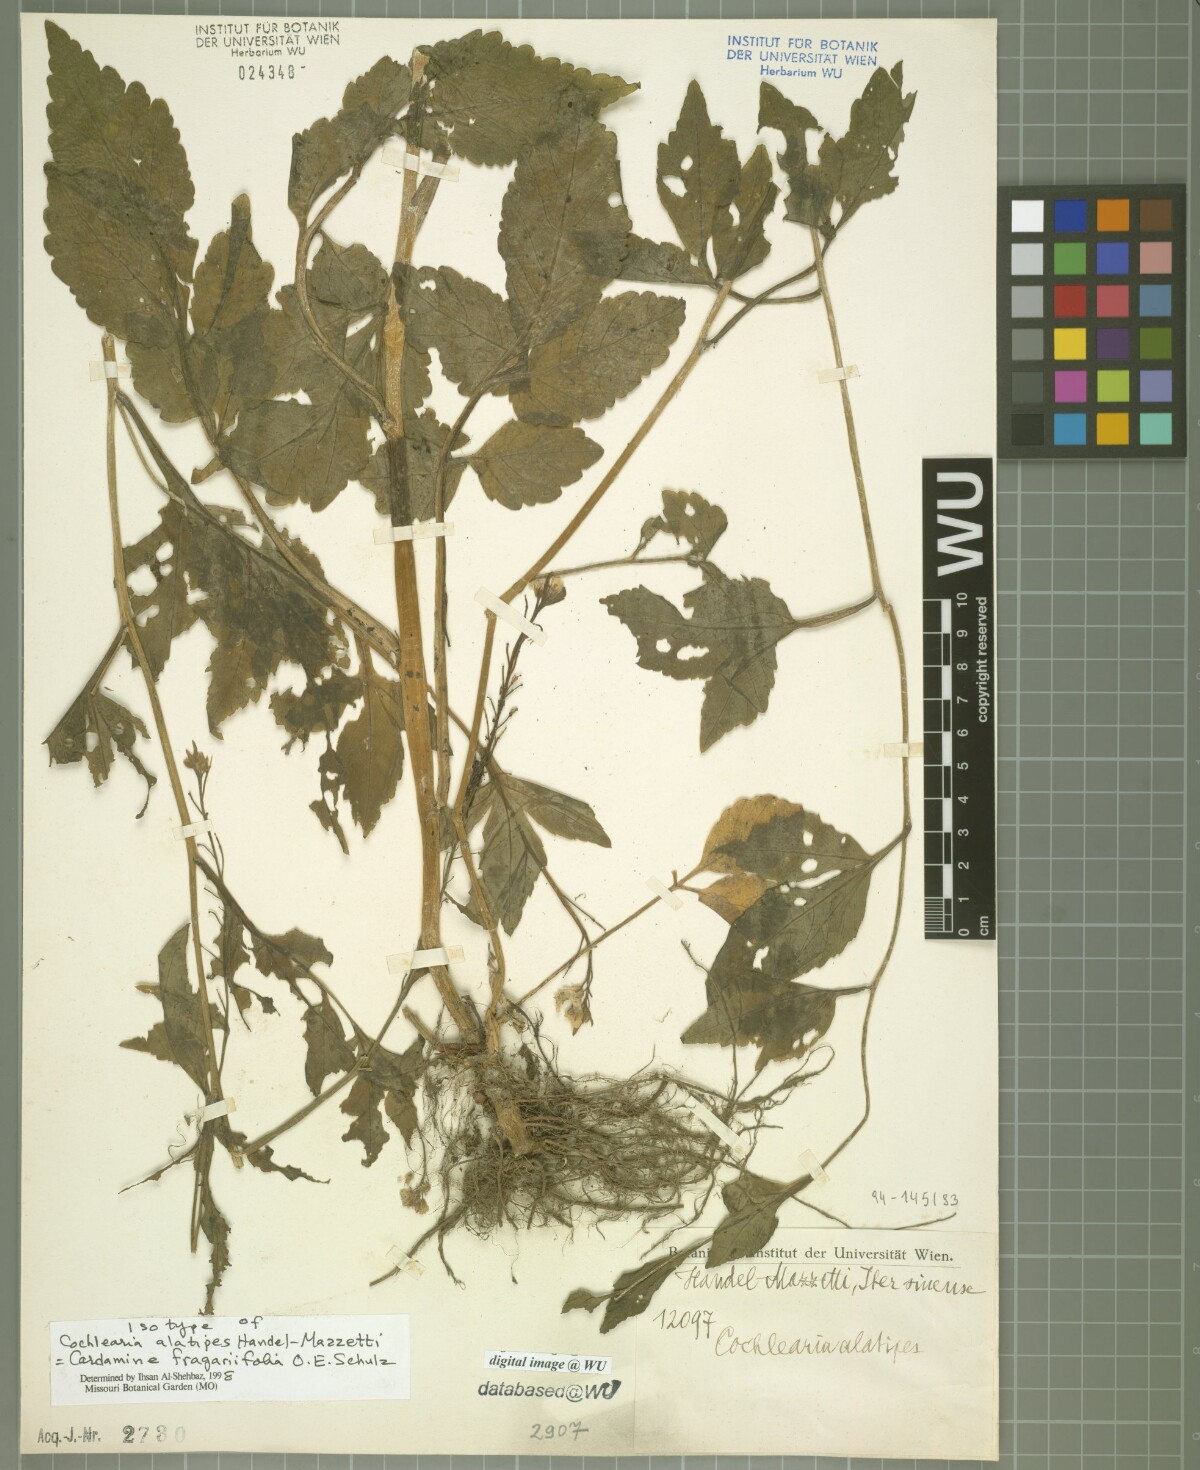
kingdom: Plantae
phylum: Tracheophyta
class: Magnoliopsida
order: Brassicales
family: Brassicaceae
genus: Cardamine
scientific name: Cardamine cheotaiyienii
